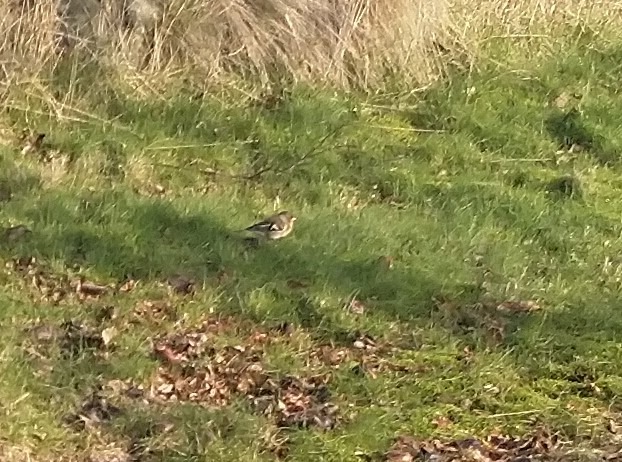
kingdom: Animalia
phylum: Chordata
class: Aves
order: Passeriformes
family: Fringillidae
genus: Fringilla
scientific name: Fringilla coelebs
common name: Bogfinke
